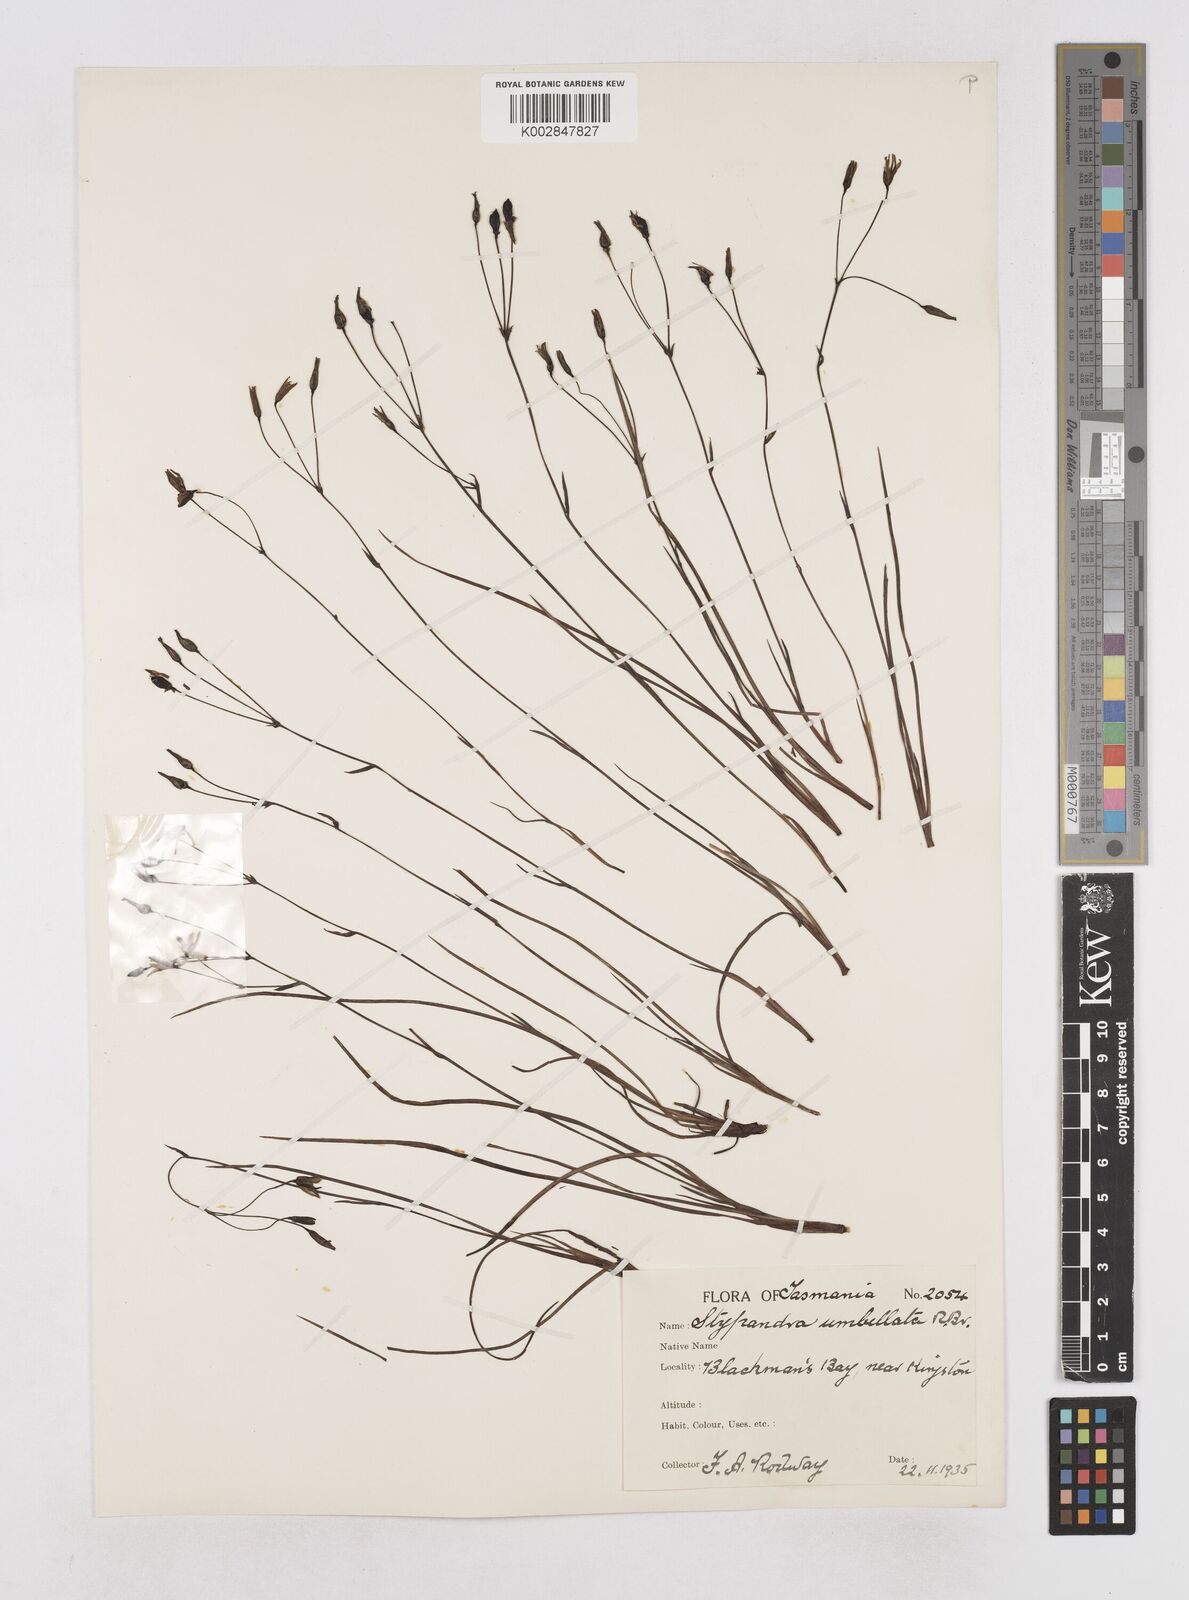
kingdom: Plantae
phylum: Tracheophyta
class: Liliopsida
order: Asparagales
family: Asphodelaceae
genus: Thelionema
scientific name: Thelionema umbellatum
